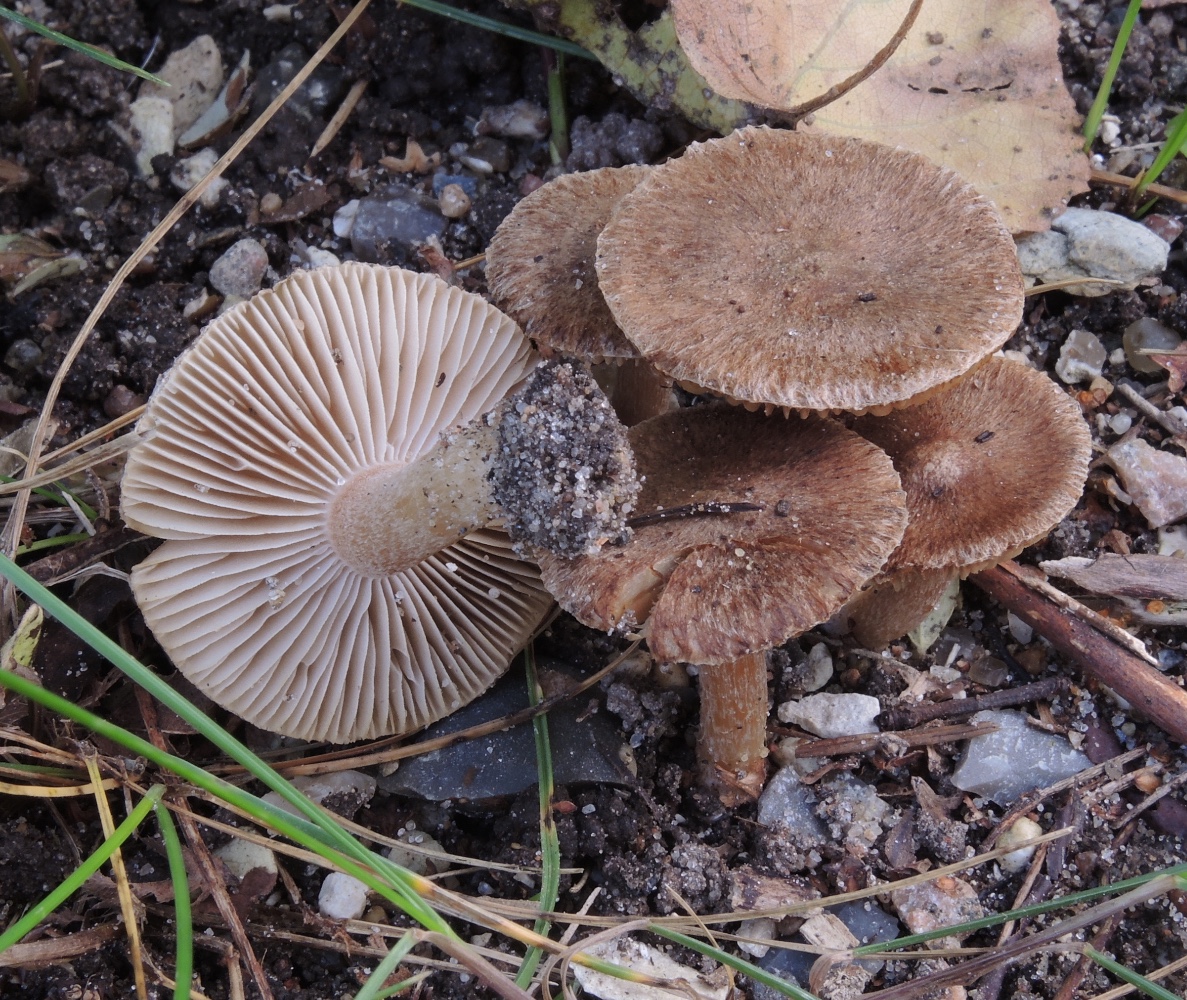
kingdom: Fungi
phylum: Basidiomycota
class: Agaricomycetes
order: Agaricales
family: Inocybaceae
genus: Inocybe
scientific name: Inocybe
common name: trævlhat
